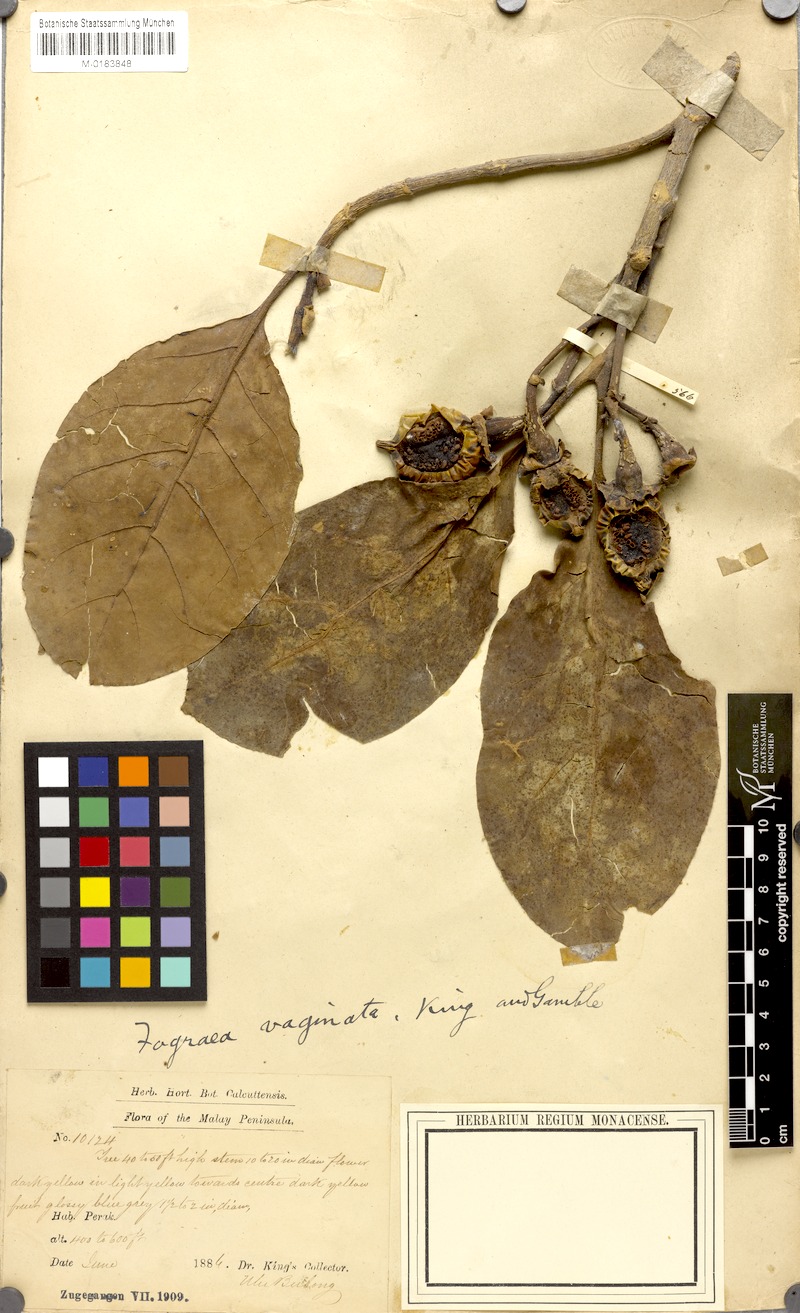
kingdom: Plantae
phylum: Tracheophyta
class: Magnoliopsida
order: Gentianales
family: Gentianaceae
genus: Fagraea
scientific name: Fagraea blumei
